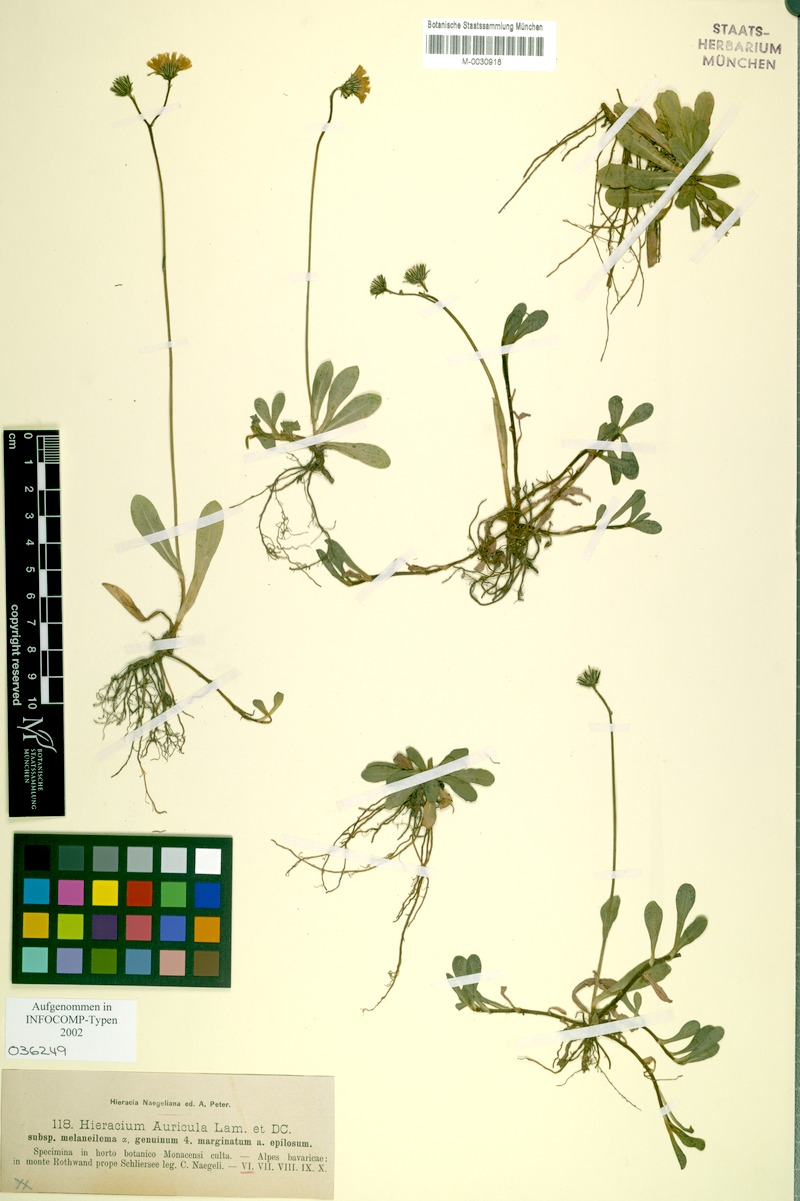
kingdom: Plantae
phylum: Tracheophyta
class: Magnoliopsida
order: Asterales
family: Asteraceae
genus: Pilosella
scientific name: Pilosella lactucella
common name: Glaucous fox-and-cubs
